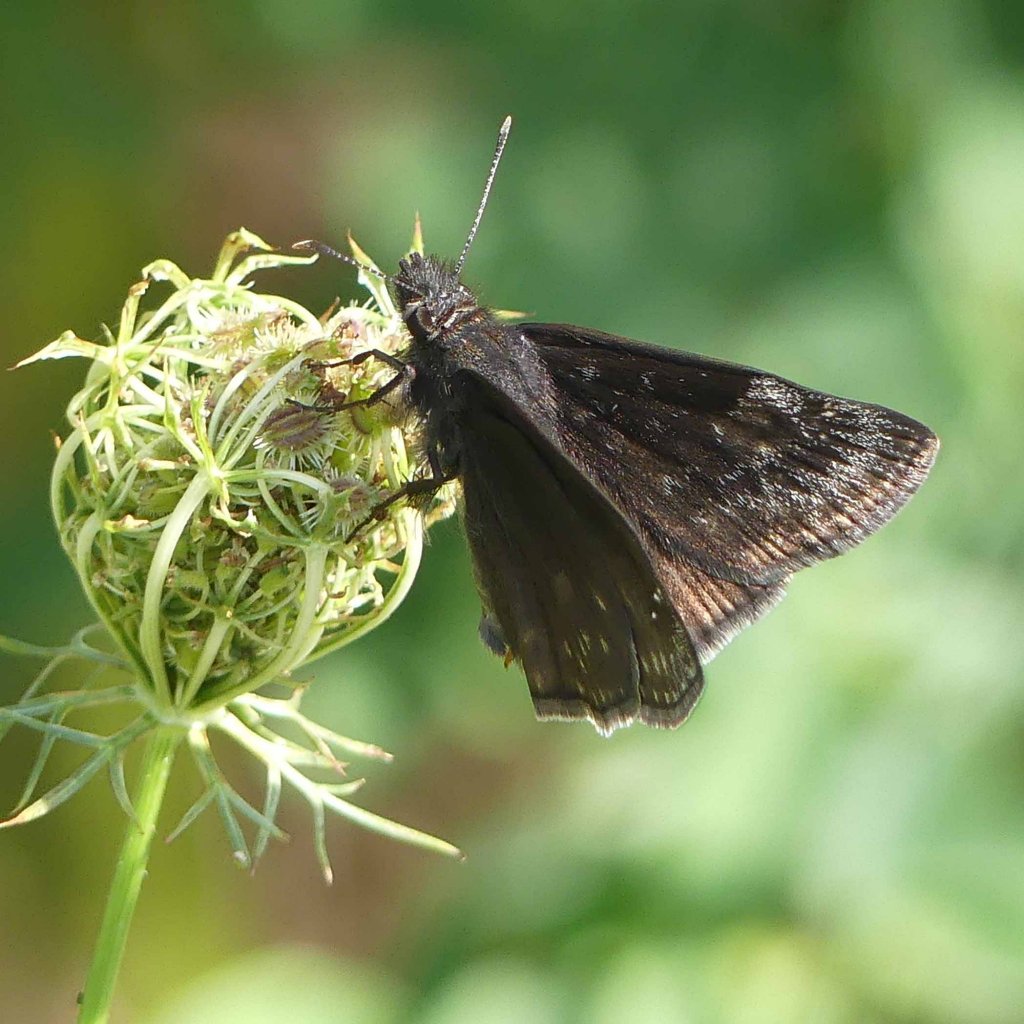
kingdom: Animalia
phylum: Arthropoda
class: Insecta
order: Lepidoptera
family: Hesperiidae
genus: Gesta
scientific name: Gesta
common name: Wild Indigo Duskywing
